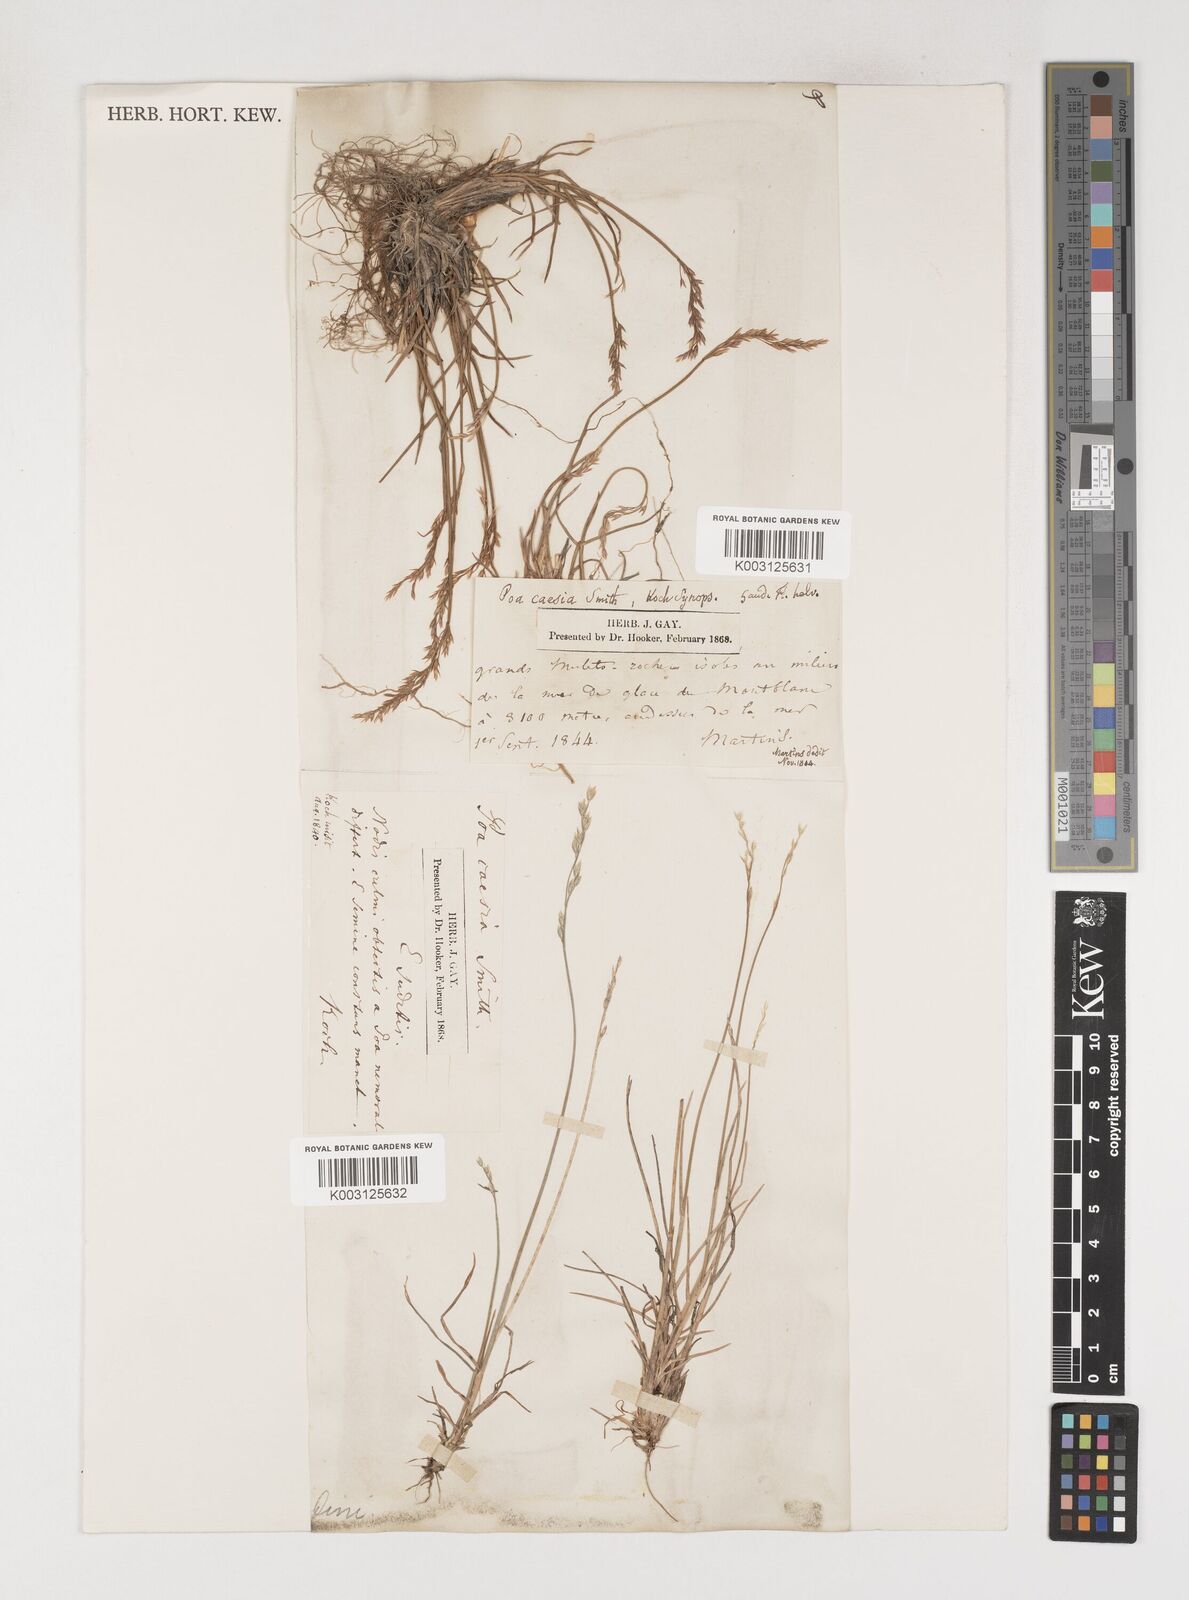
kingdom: Plantae
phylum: Tracheophyta
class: Liliopsida
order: Poales
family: Poaceae
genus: Poa
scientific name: Poa
